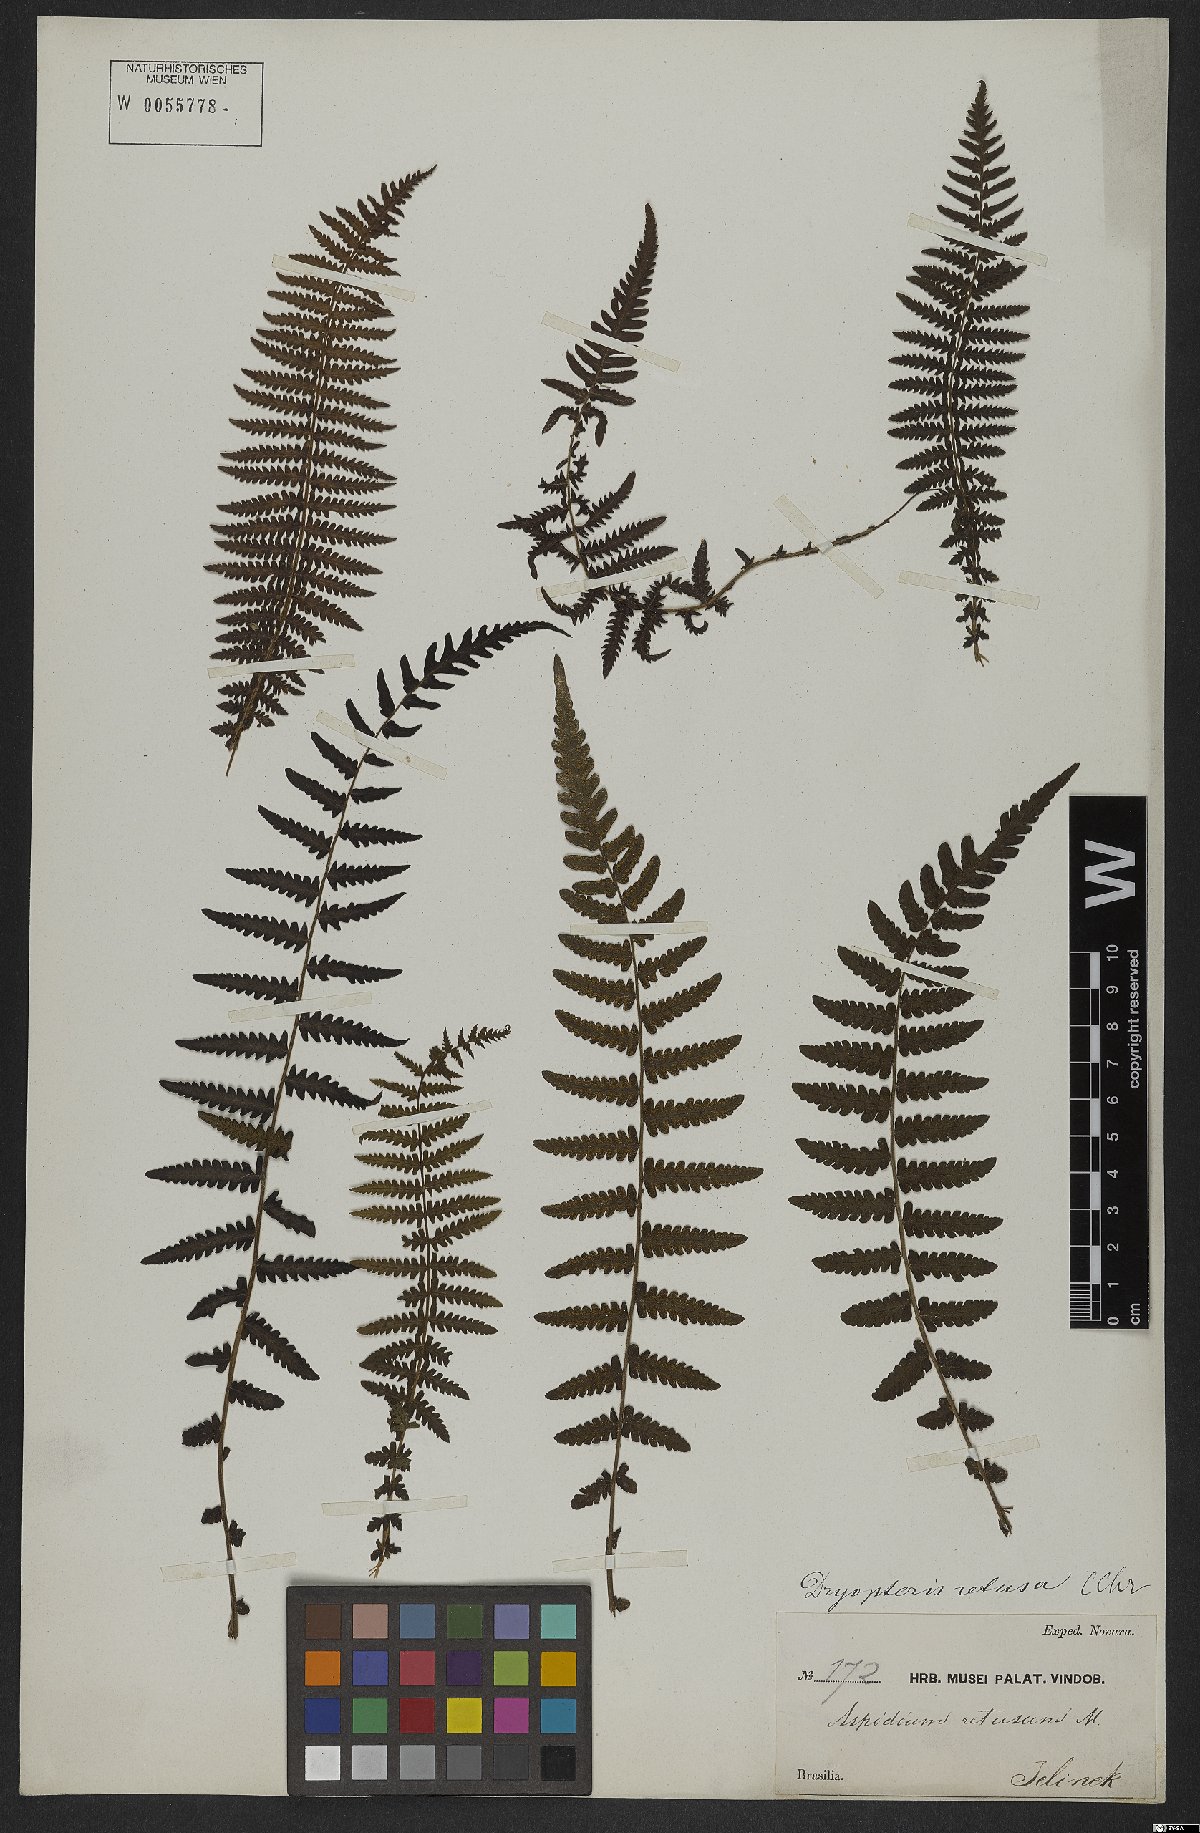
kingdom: Plantae
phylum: Tracheophyta
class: Polypodiopsida
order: Polypodiales
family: Thelypteridaceae
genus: Amauropelta
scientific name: Amauropelta retusa
